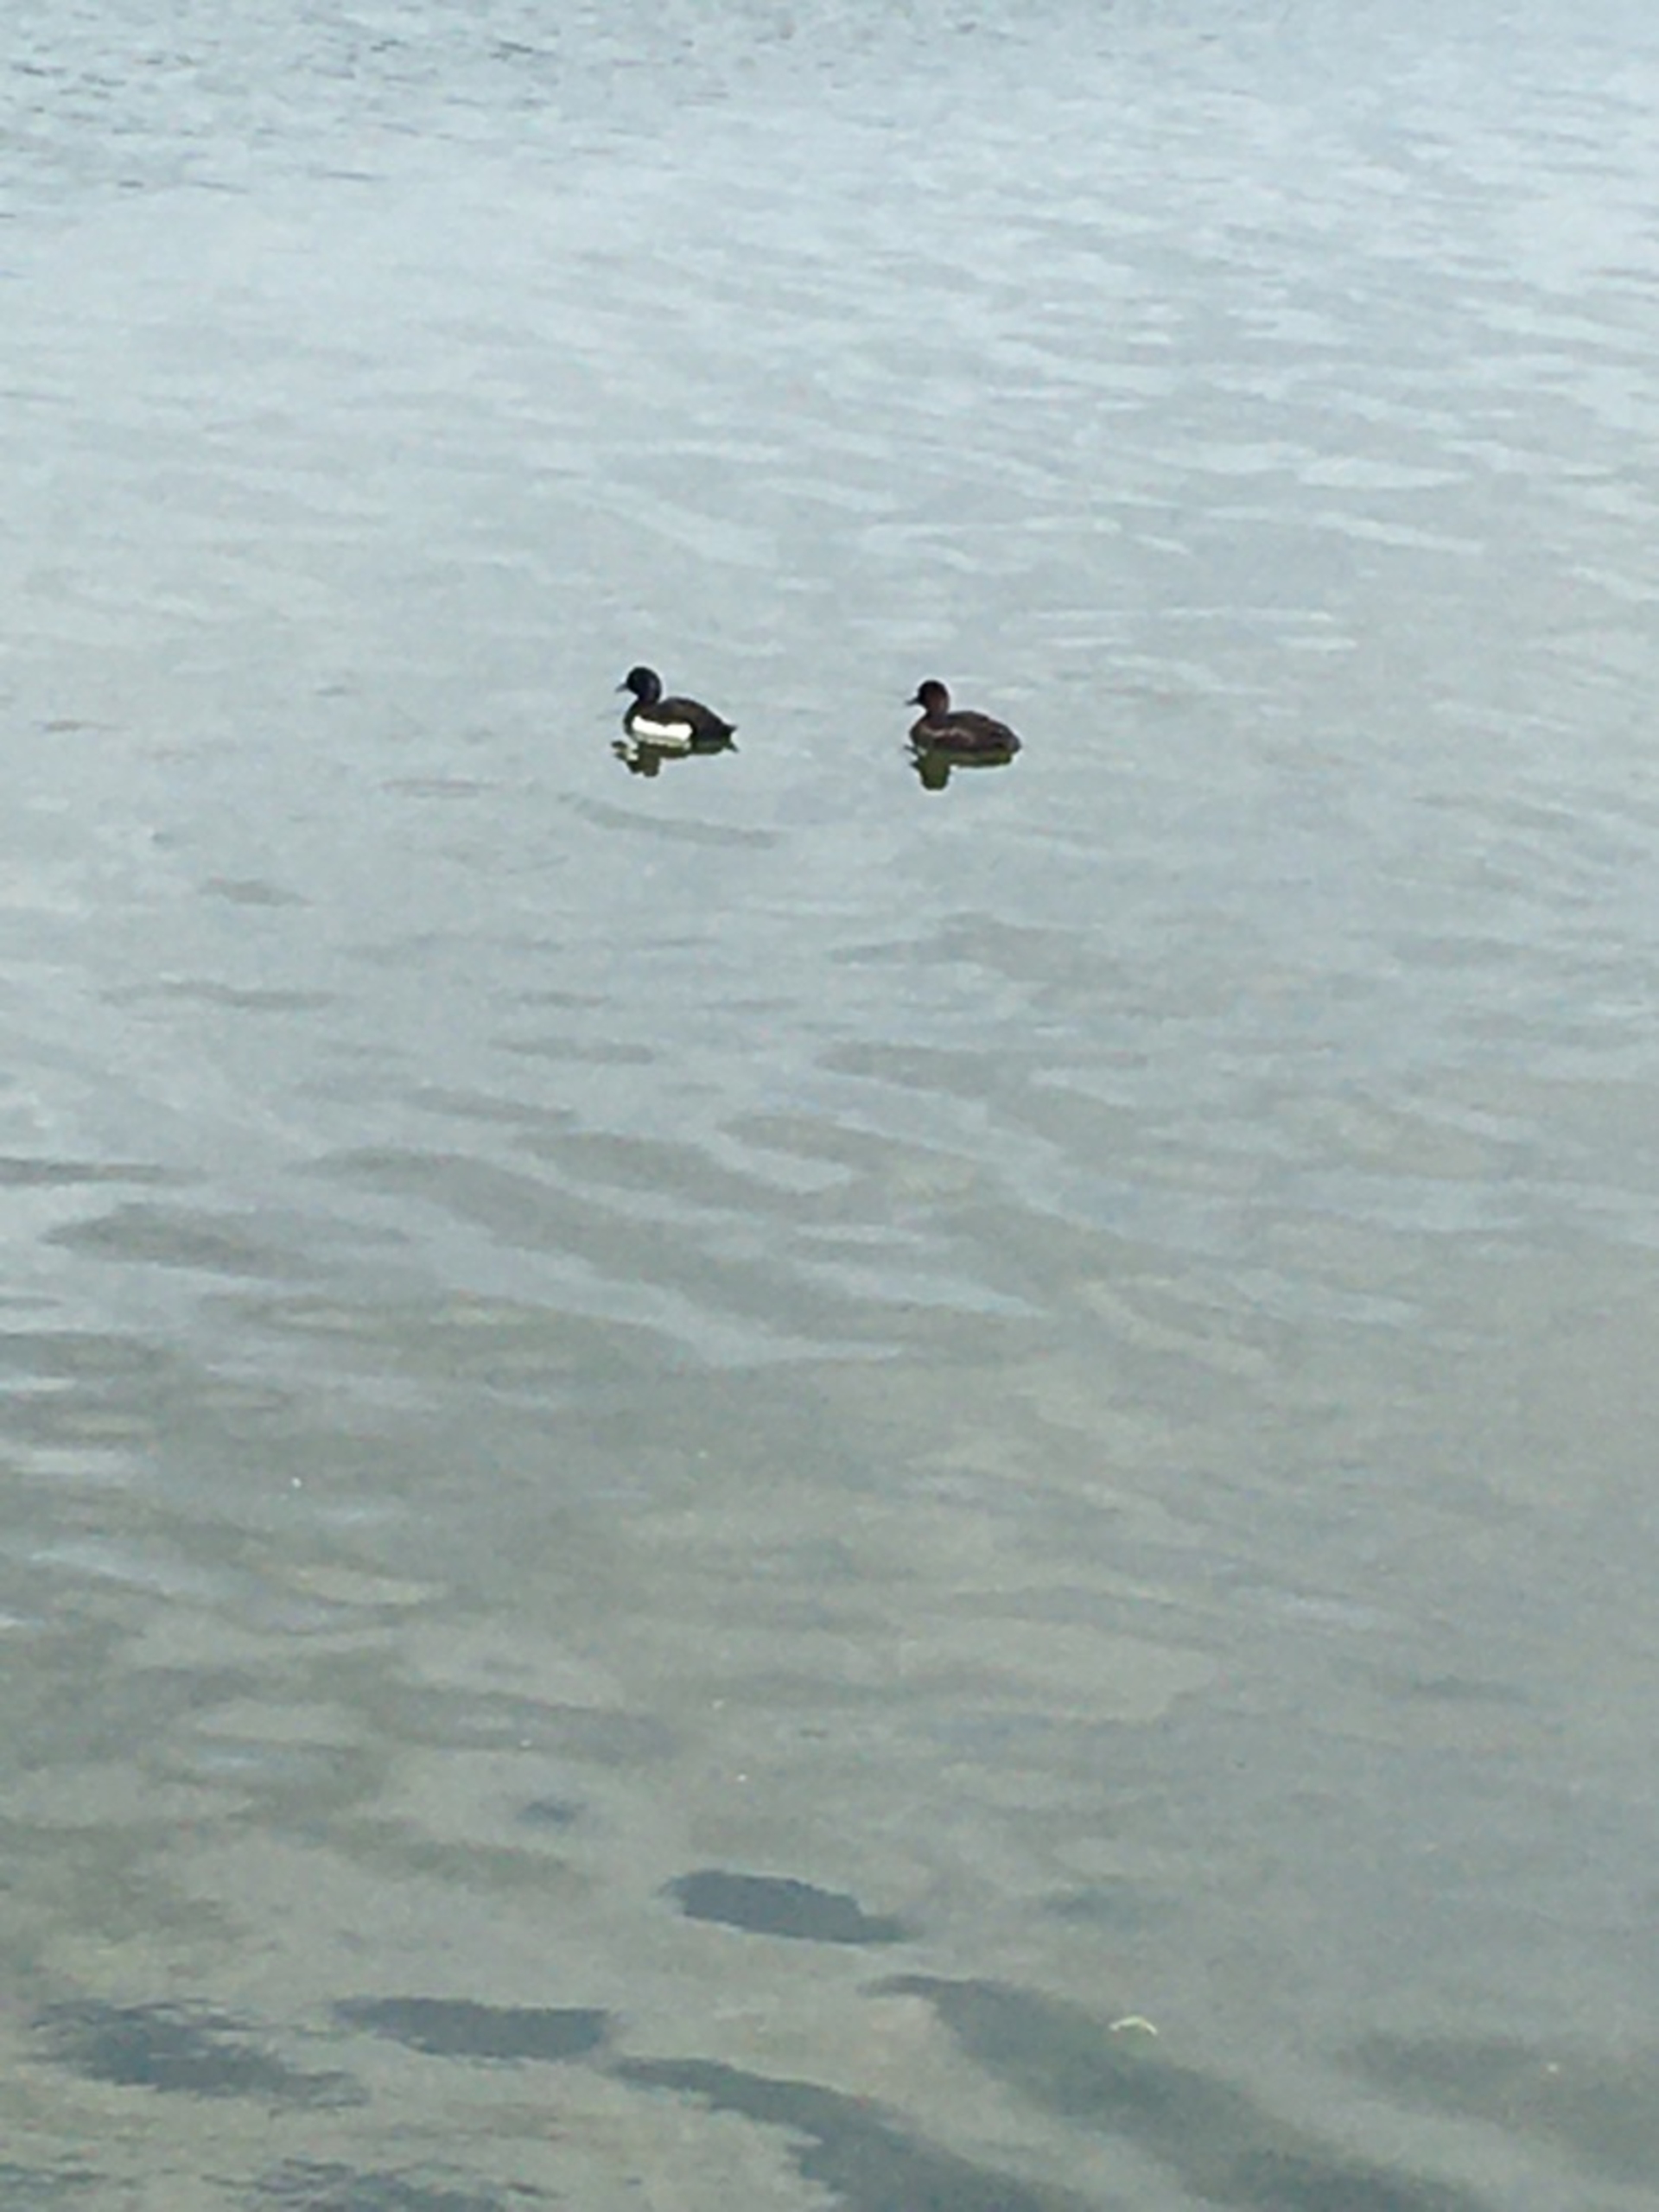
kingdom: Animalia
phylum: Chordata
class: Aves
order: Anseriformes
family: Anatidae
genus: Aythya
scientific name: Aythya fuligula
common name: Troldand
